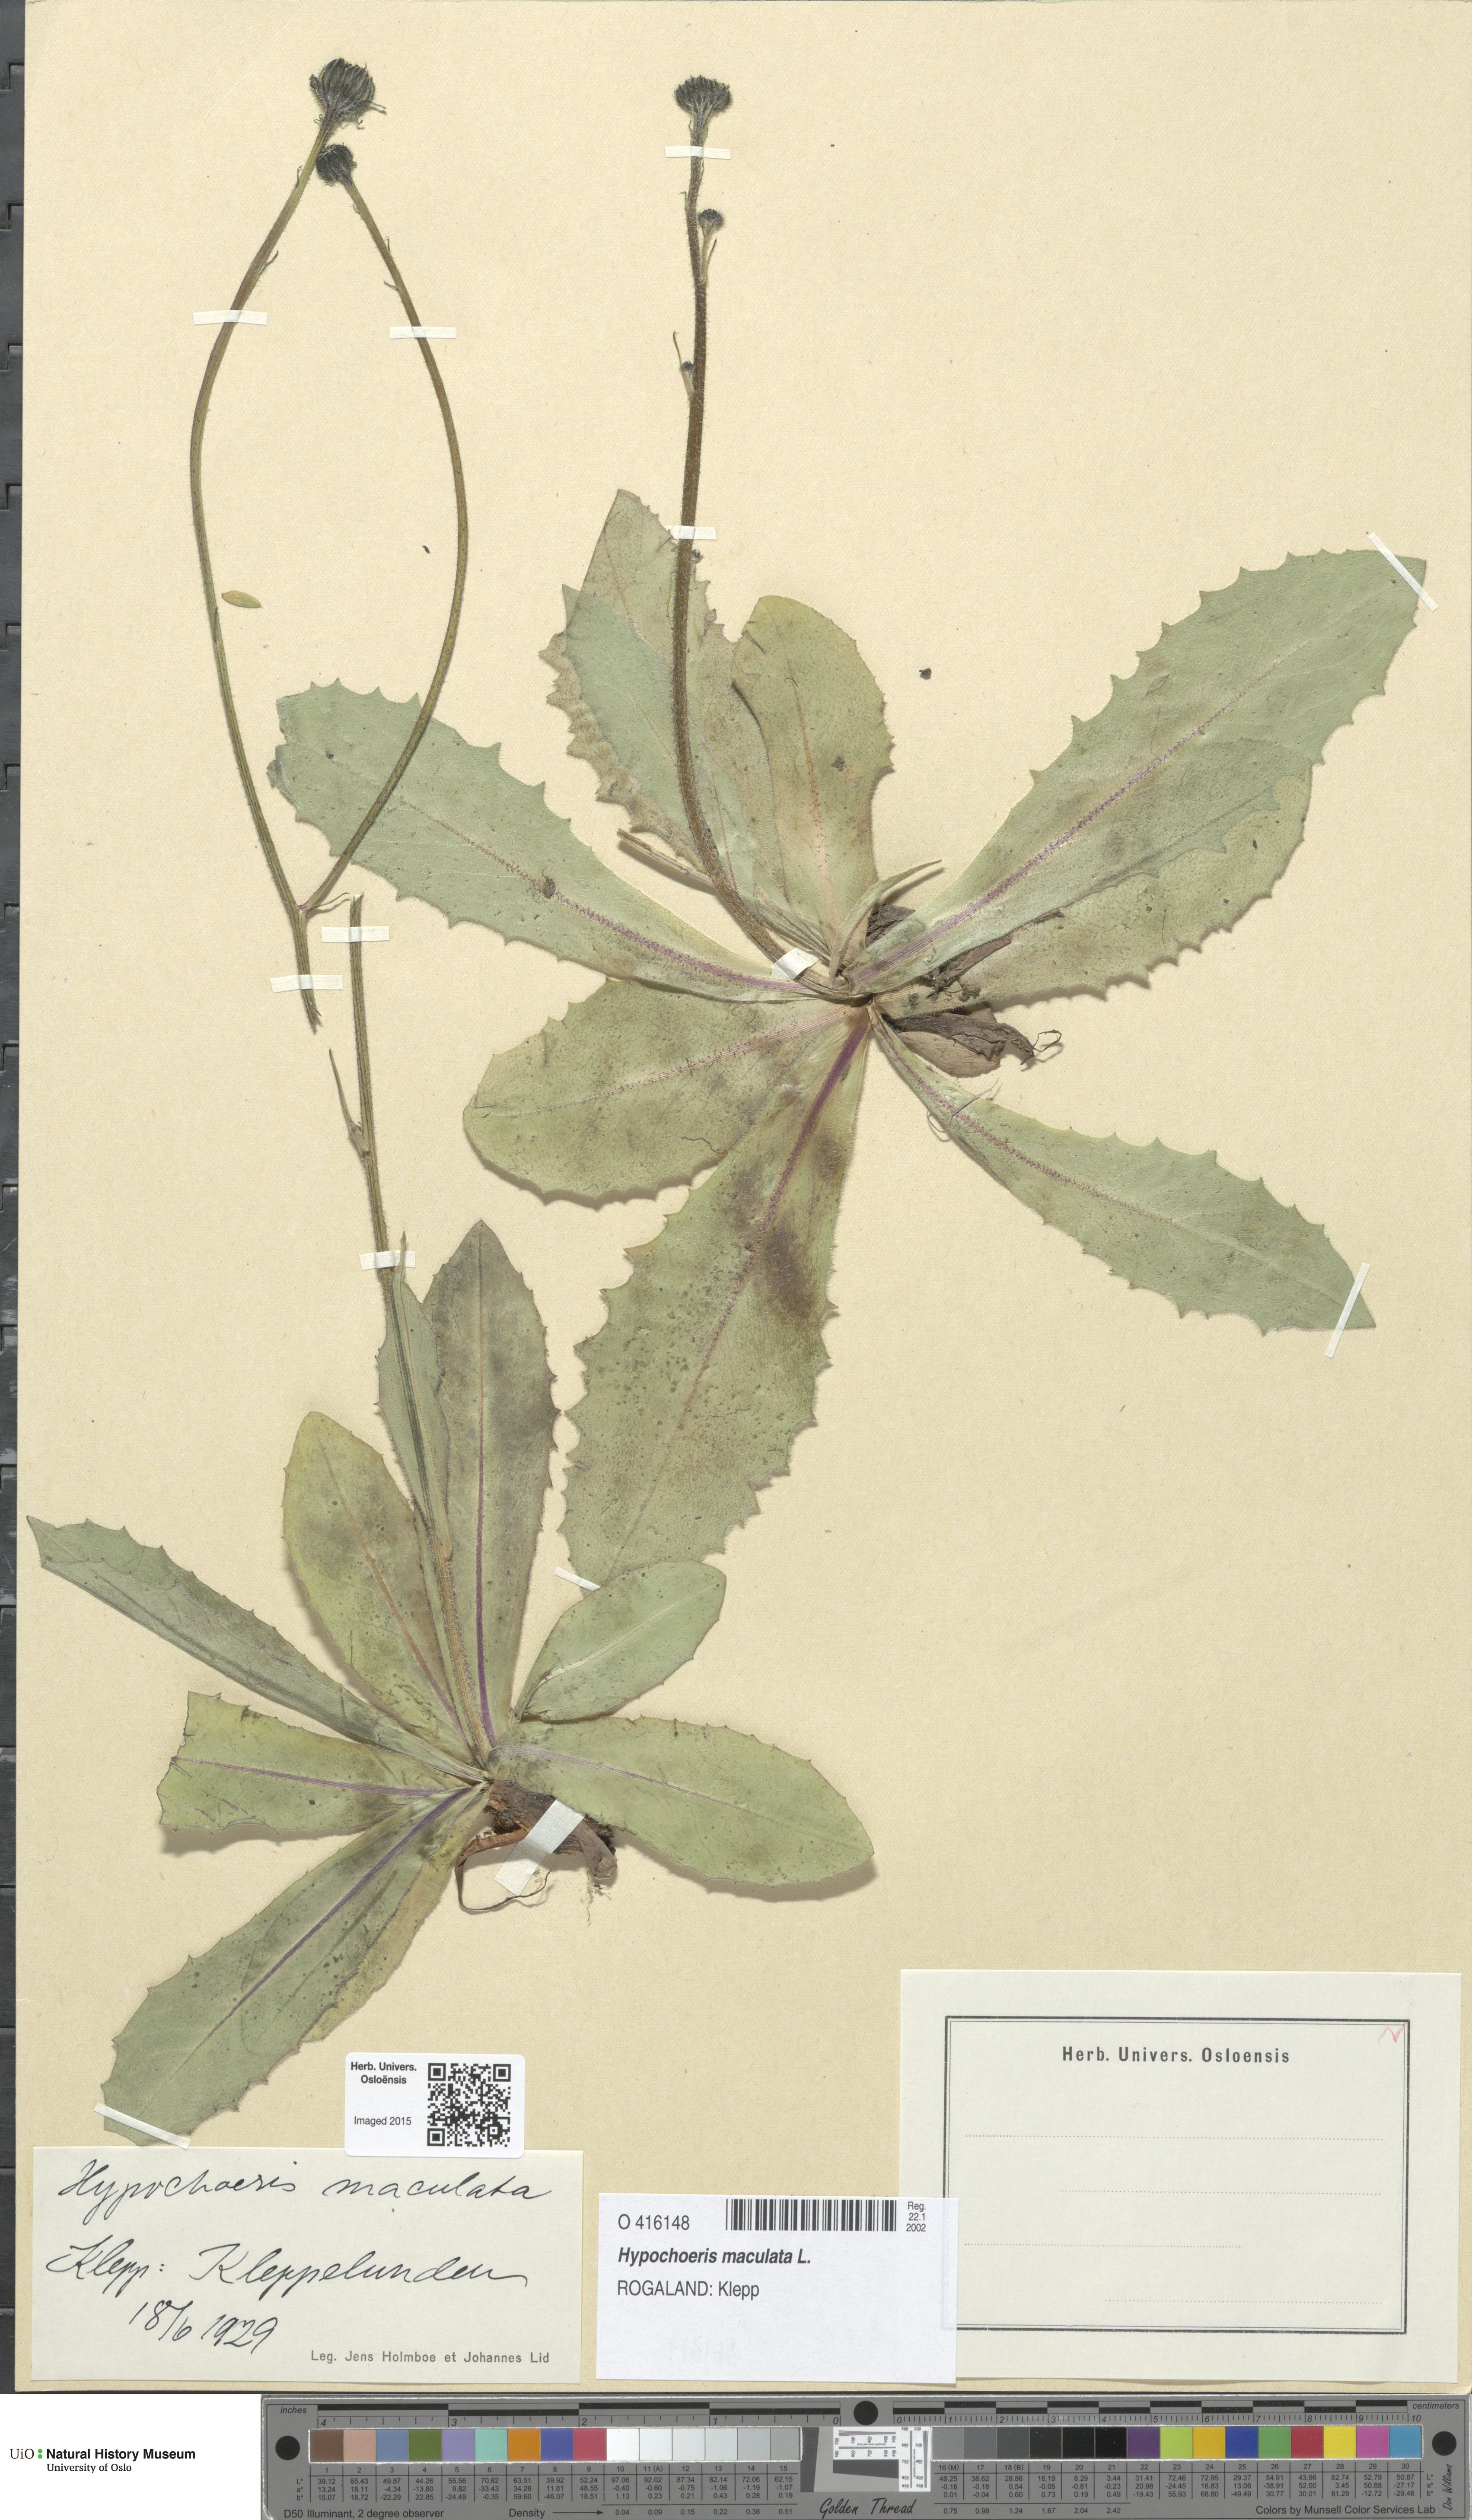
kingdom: Plantae
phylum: Tracheophyta
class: Magnoliopsida
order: Asterales
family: Asteraceae
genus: Trommsdorffia
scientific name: Trommsdorffia maculata
